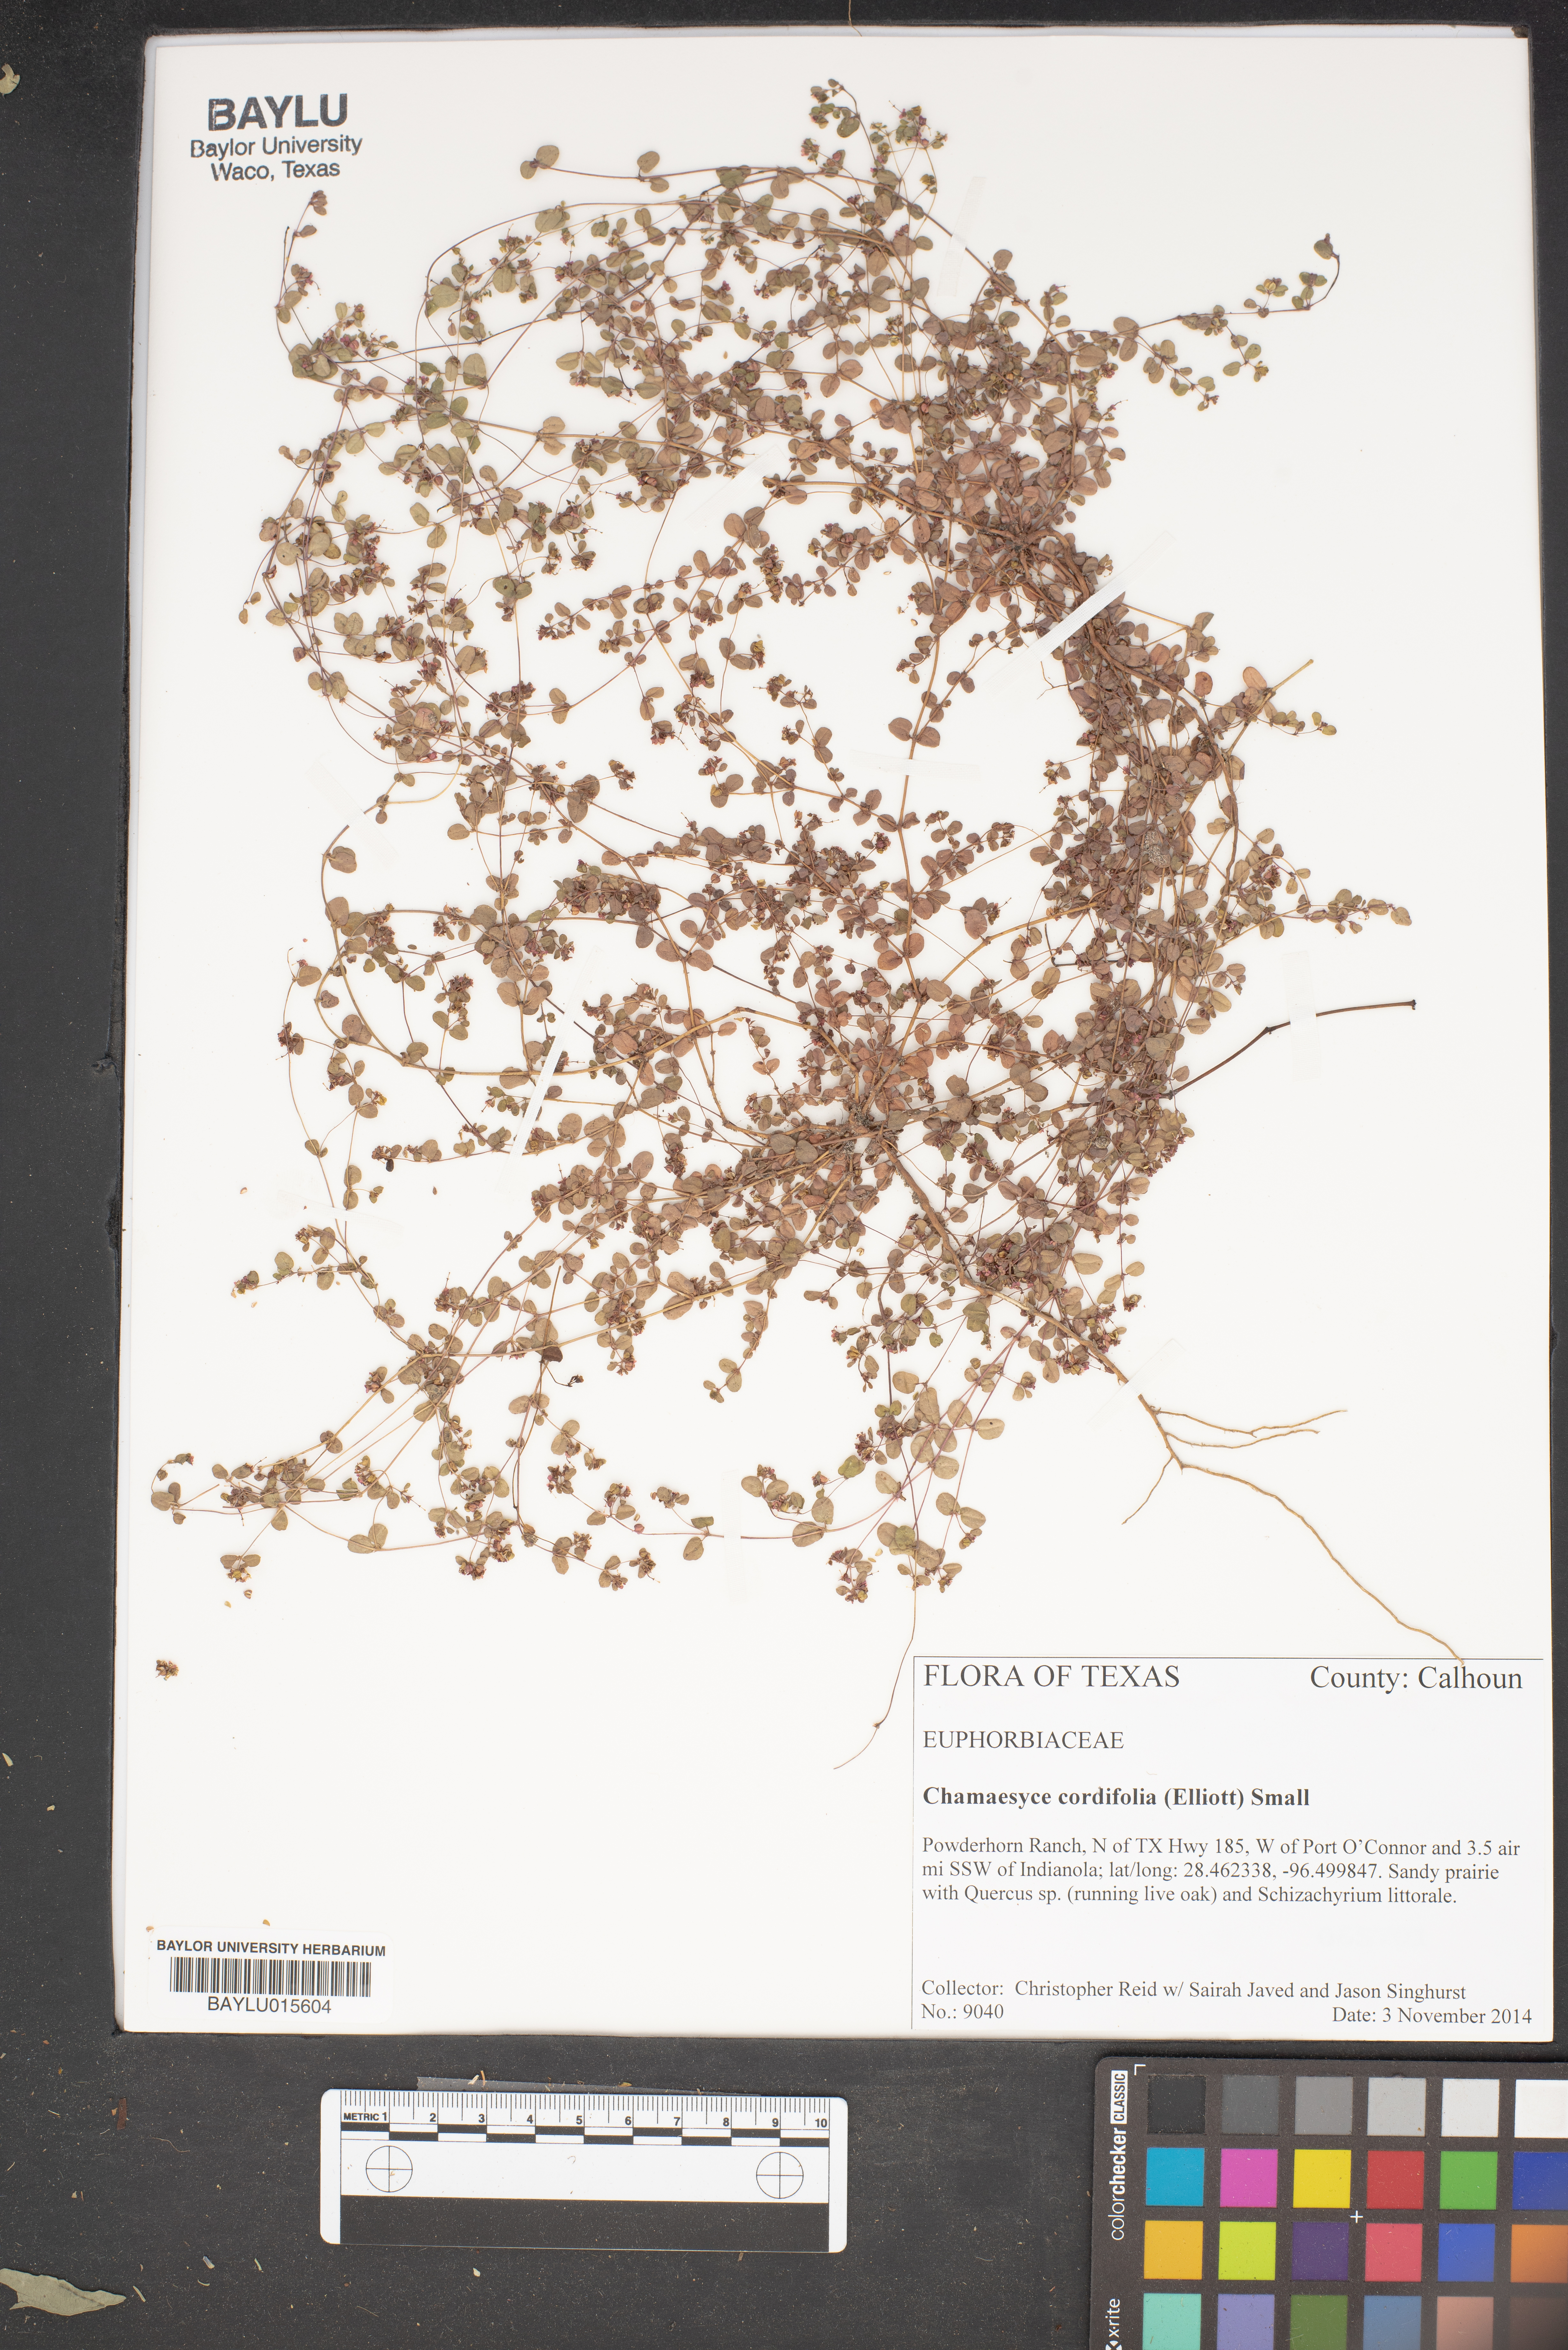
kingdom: Plantae
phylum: Tracheophyta
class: Magnoliopsida
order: Malpighiales
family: Euphorbiaceae
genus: Euphorbia
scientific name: Euphorbia cordifolia
